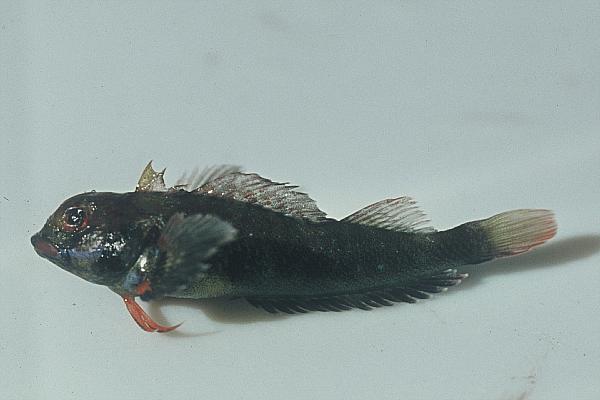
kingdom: Animalia
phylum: Chordata
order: Perciformes
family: Tripterygiidae
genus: Helcogramma
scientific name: Helcogramma rharhabe
